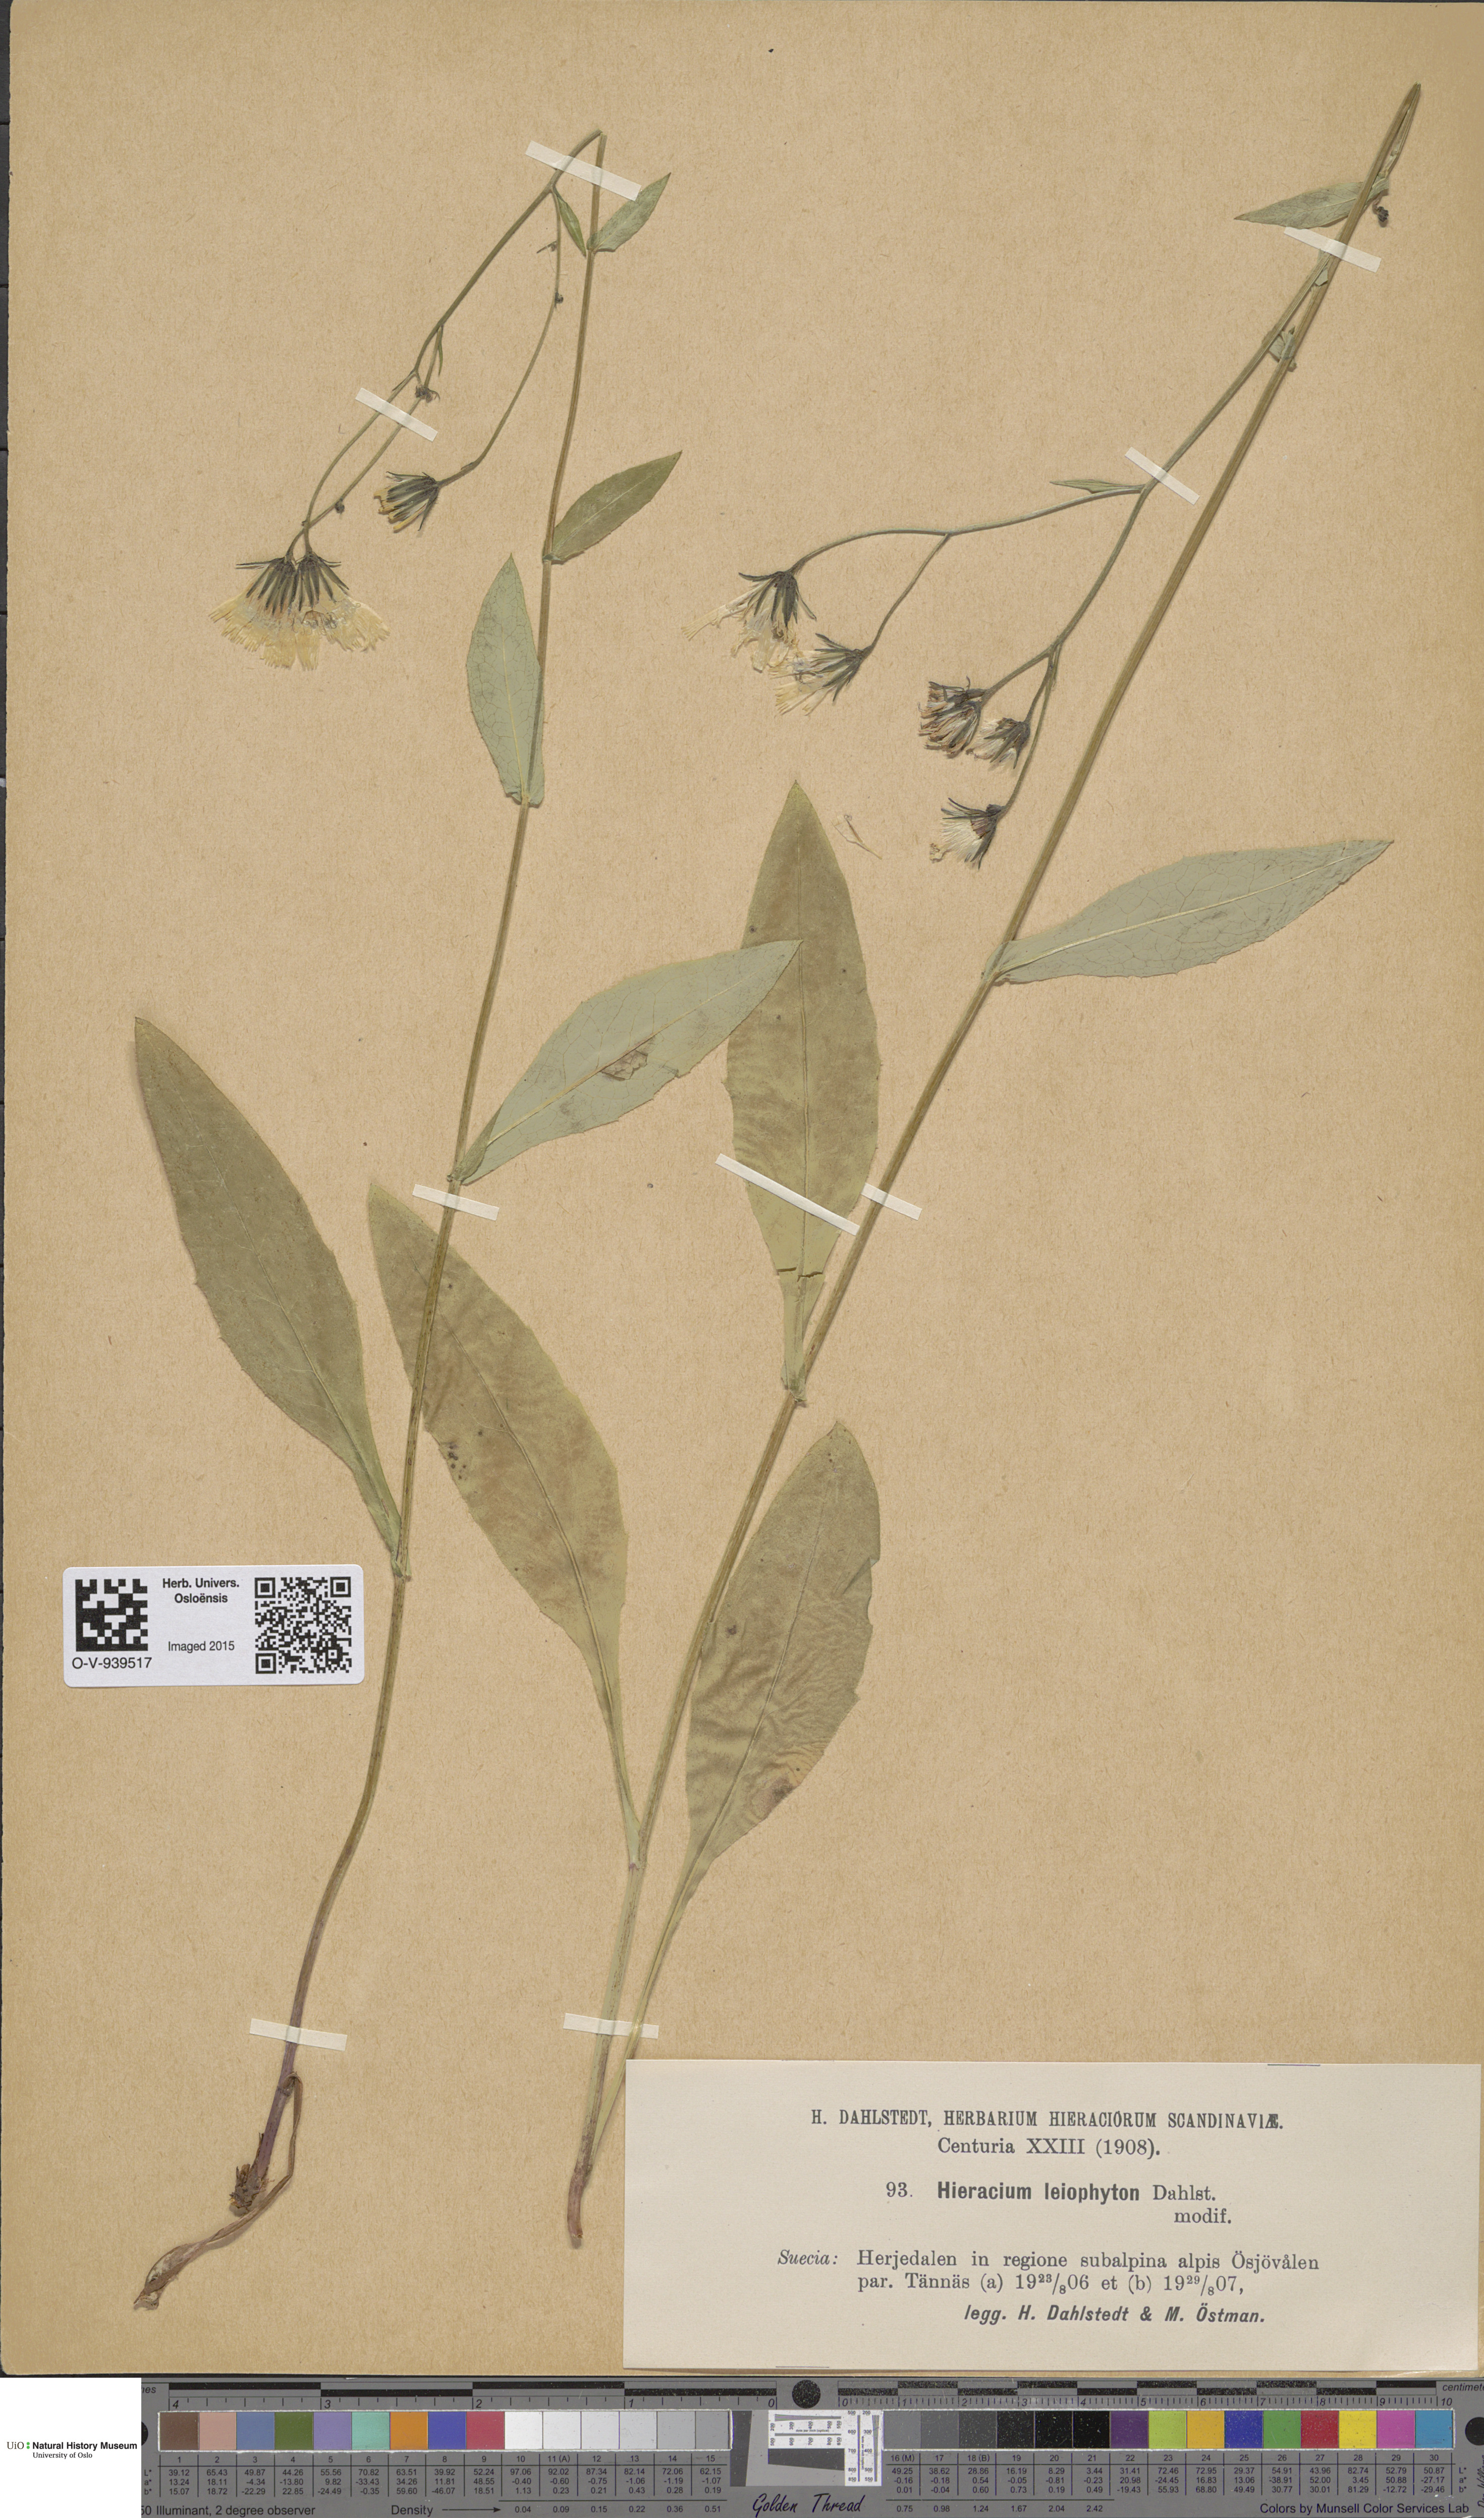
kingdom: Plantae
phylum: Tracheophyta
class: Magnoliopsida
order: Asterales
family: Asteraceae
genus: Hieracium
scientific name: Hieracium dovrense
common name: Dovre hawkweed
